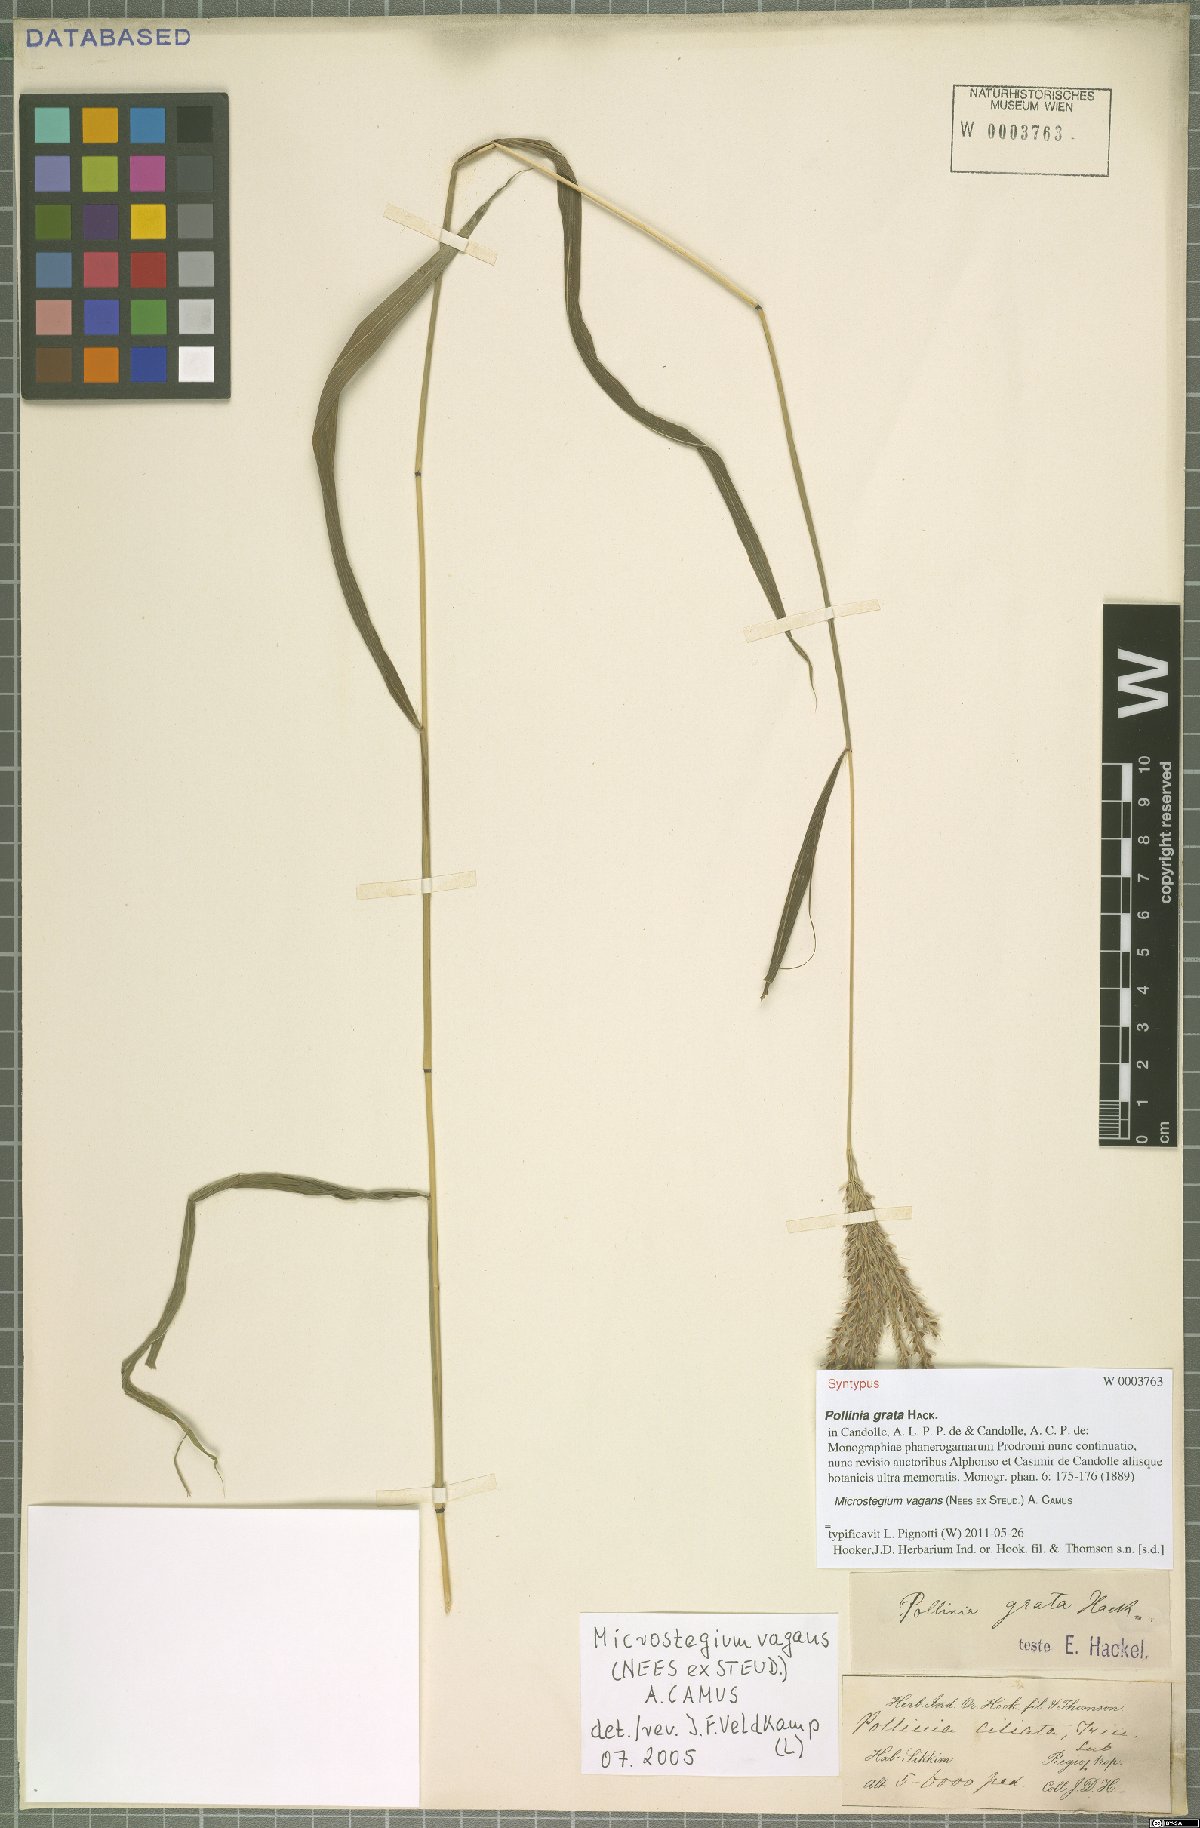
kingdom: Plantae
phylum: Tracheophyta
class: Liliopsida
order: Poales
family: Poaceae
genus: Microstegium
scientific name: Microstegium fasciculatum
